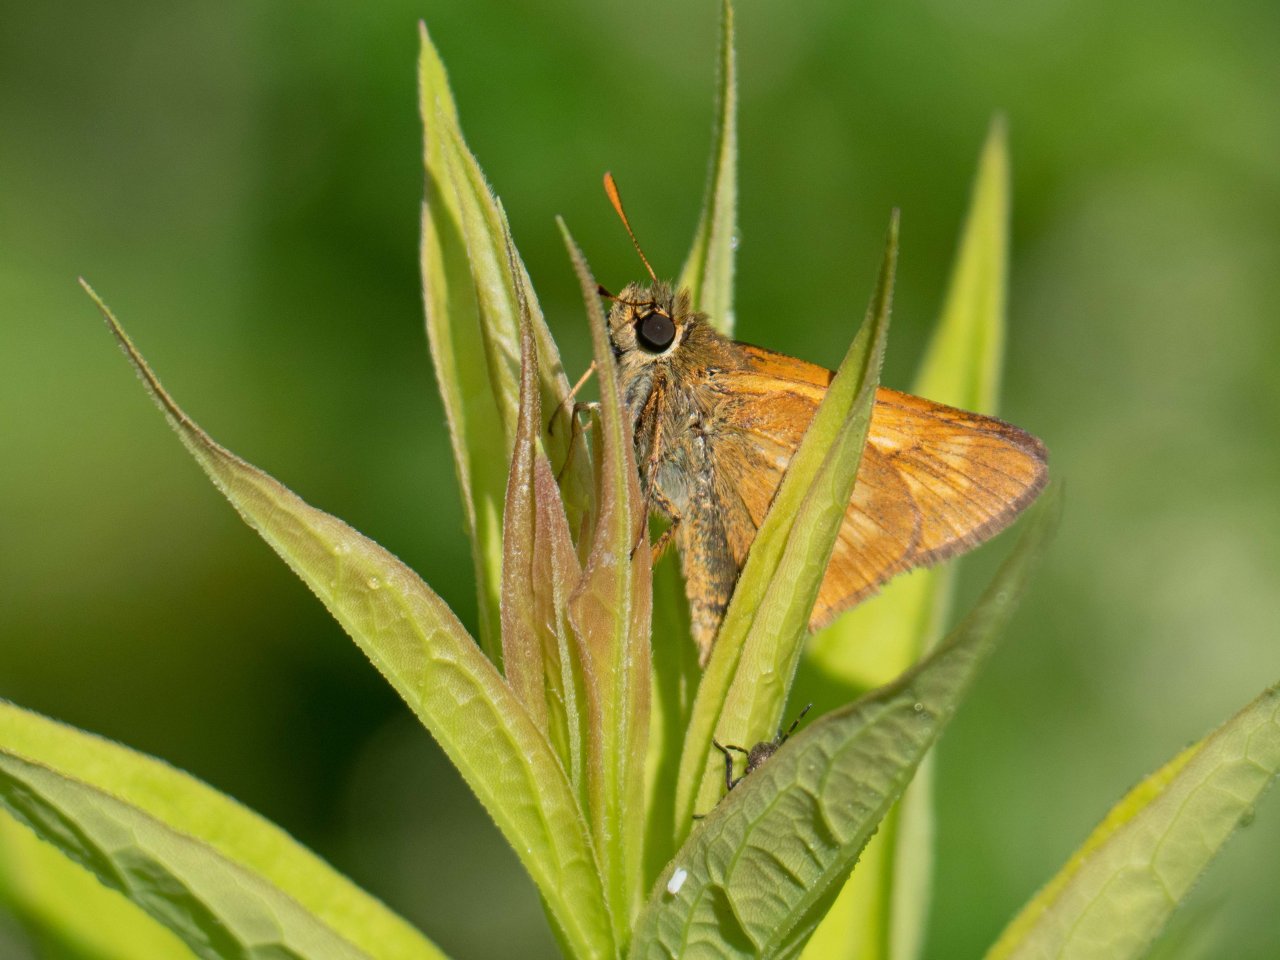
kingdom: Animalia
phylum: Arthropoda
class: Insecta
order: Lepidoptera
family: Hesperiidae
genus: Polites
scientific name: Polites
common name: Long Dash Skipper
